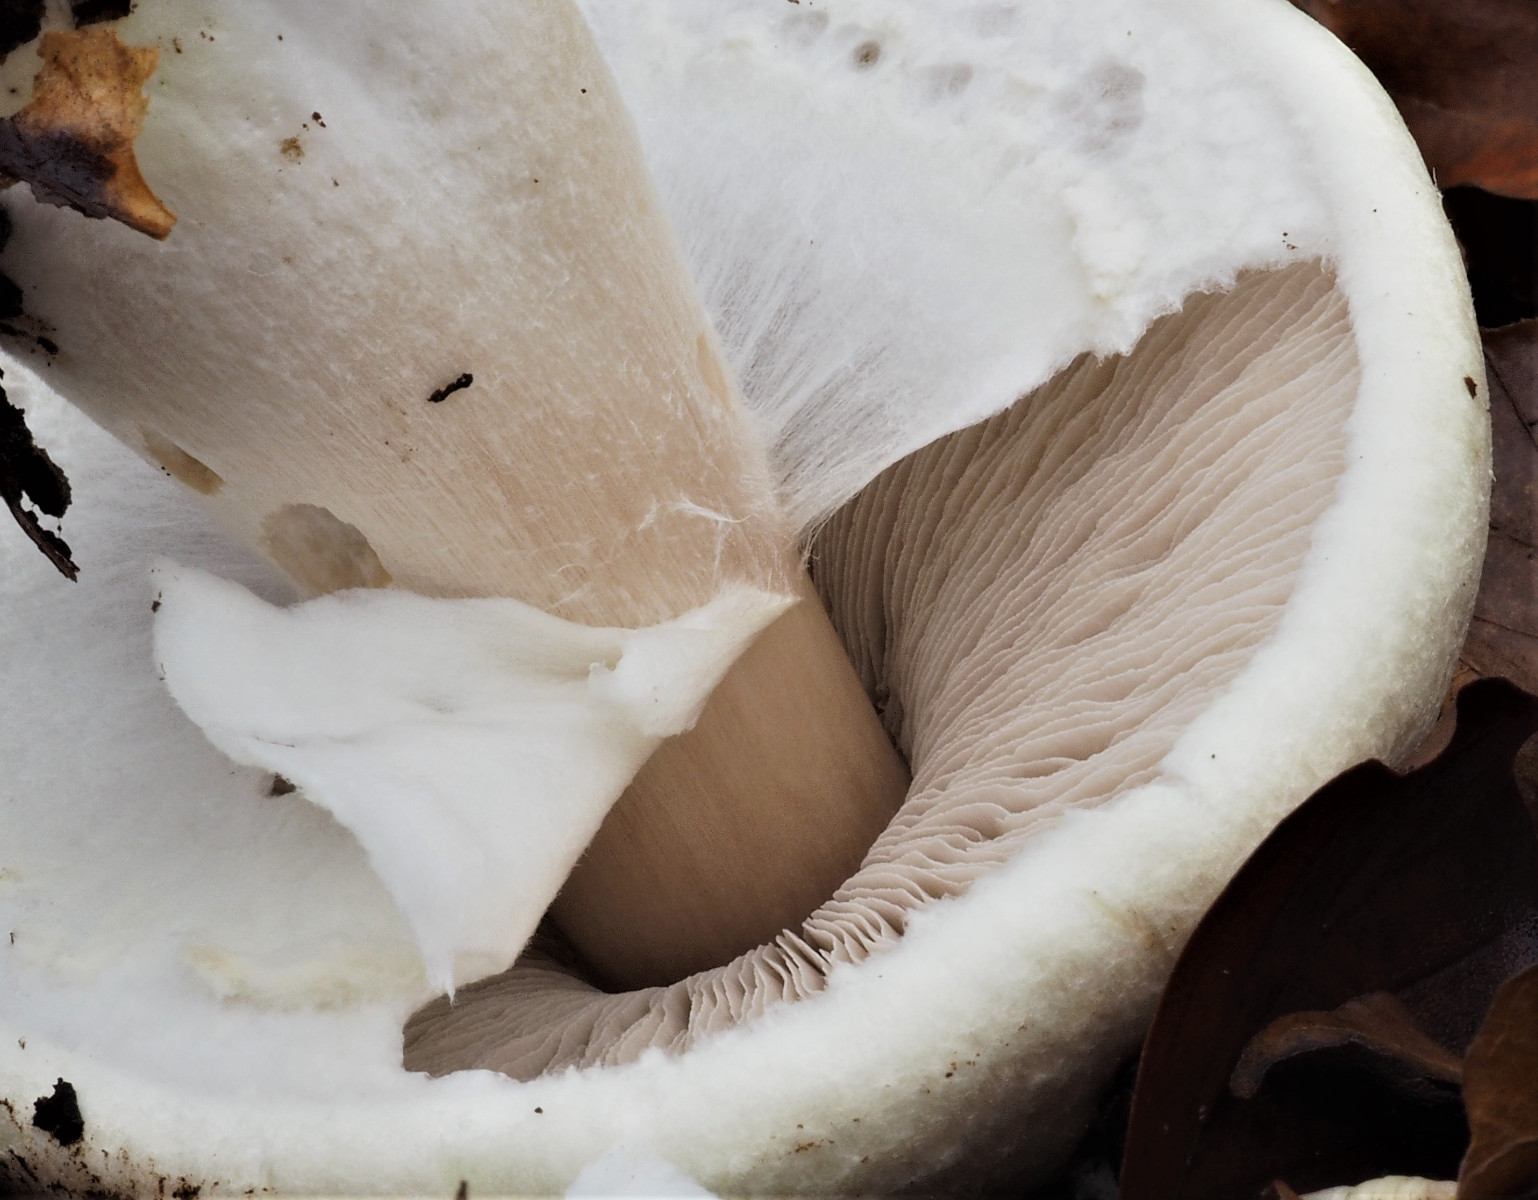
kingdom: Fungi
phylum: Basidiomycota
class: Agaricomycetes
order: Agaricales
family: Agaricaceae
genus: Agaricus
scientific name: Agaricus sylvicola
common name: gulhvid champignon
